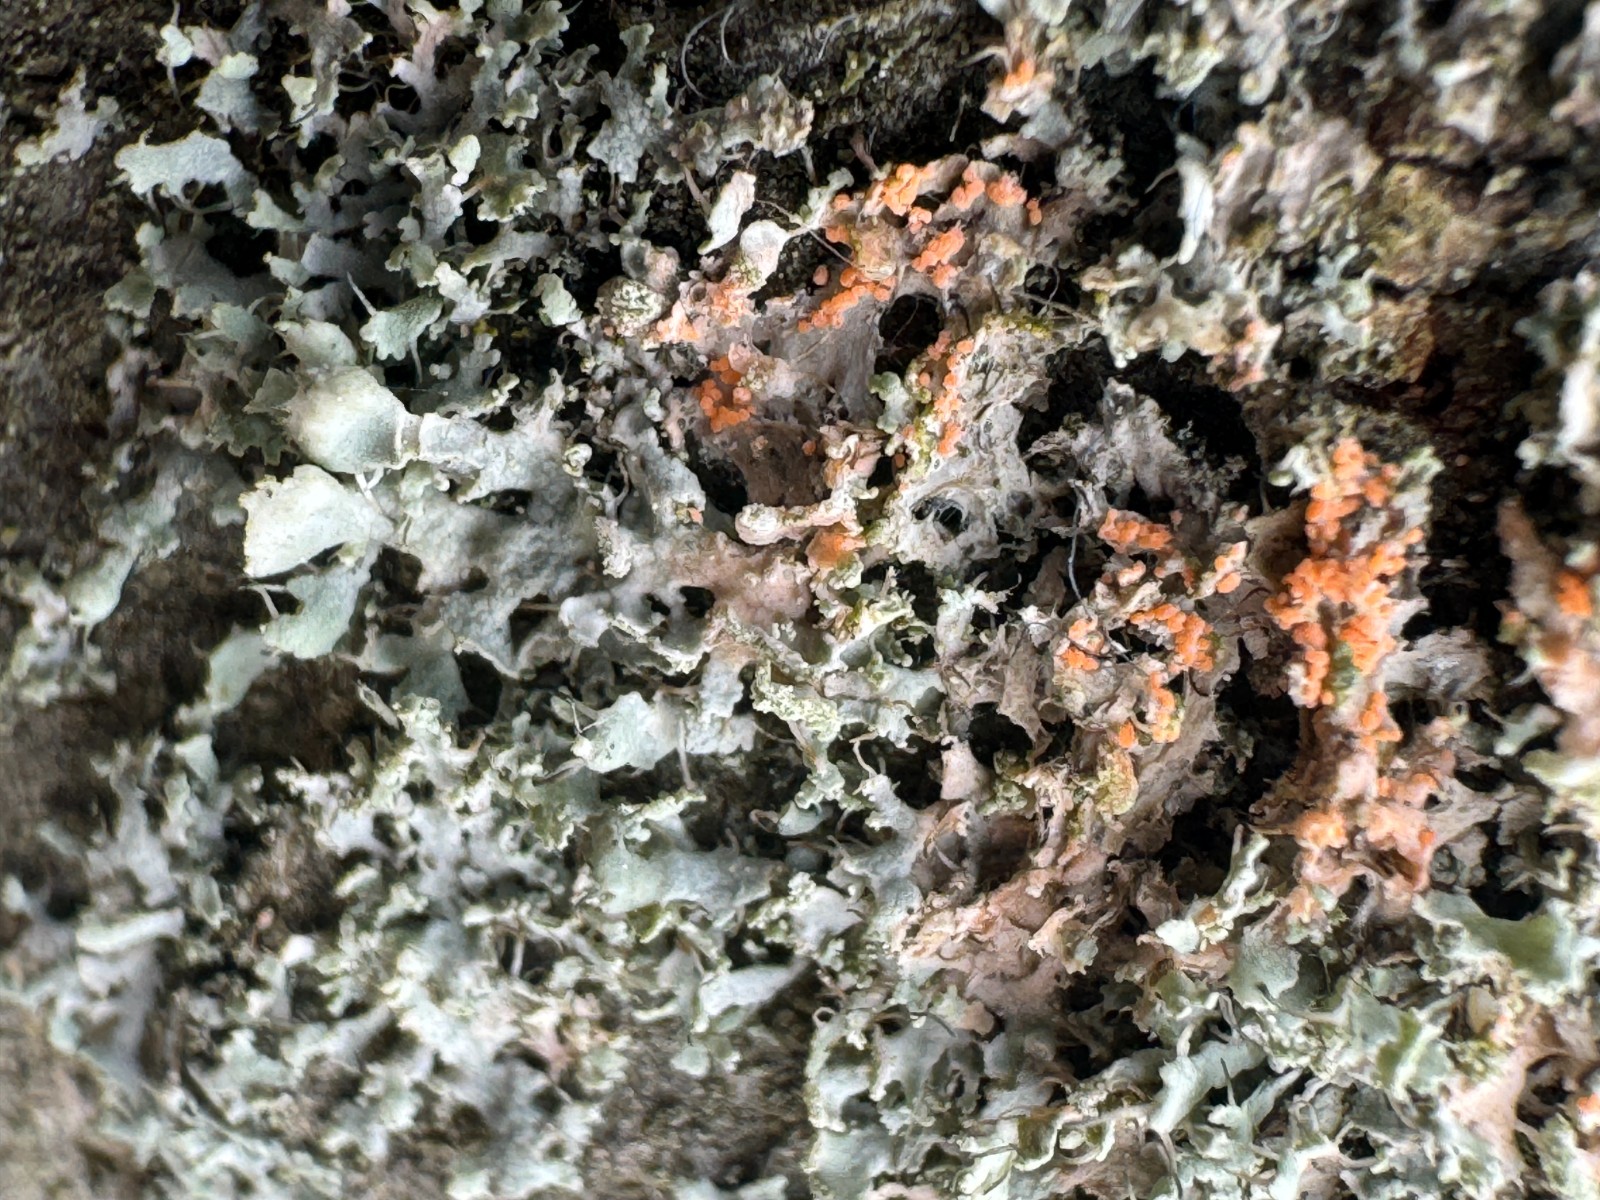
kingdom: Fungi
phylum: Basidiomycota
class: Agaricomycetes
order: Corticiales
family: Corticiaceae
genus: Erythricium
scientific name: Erythricium aurantiacum
